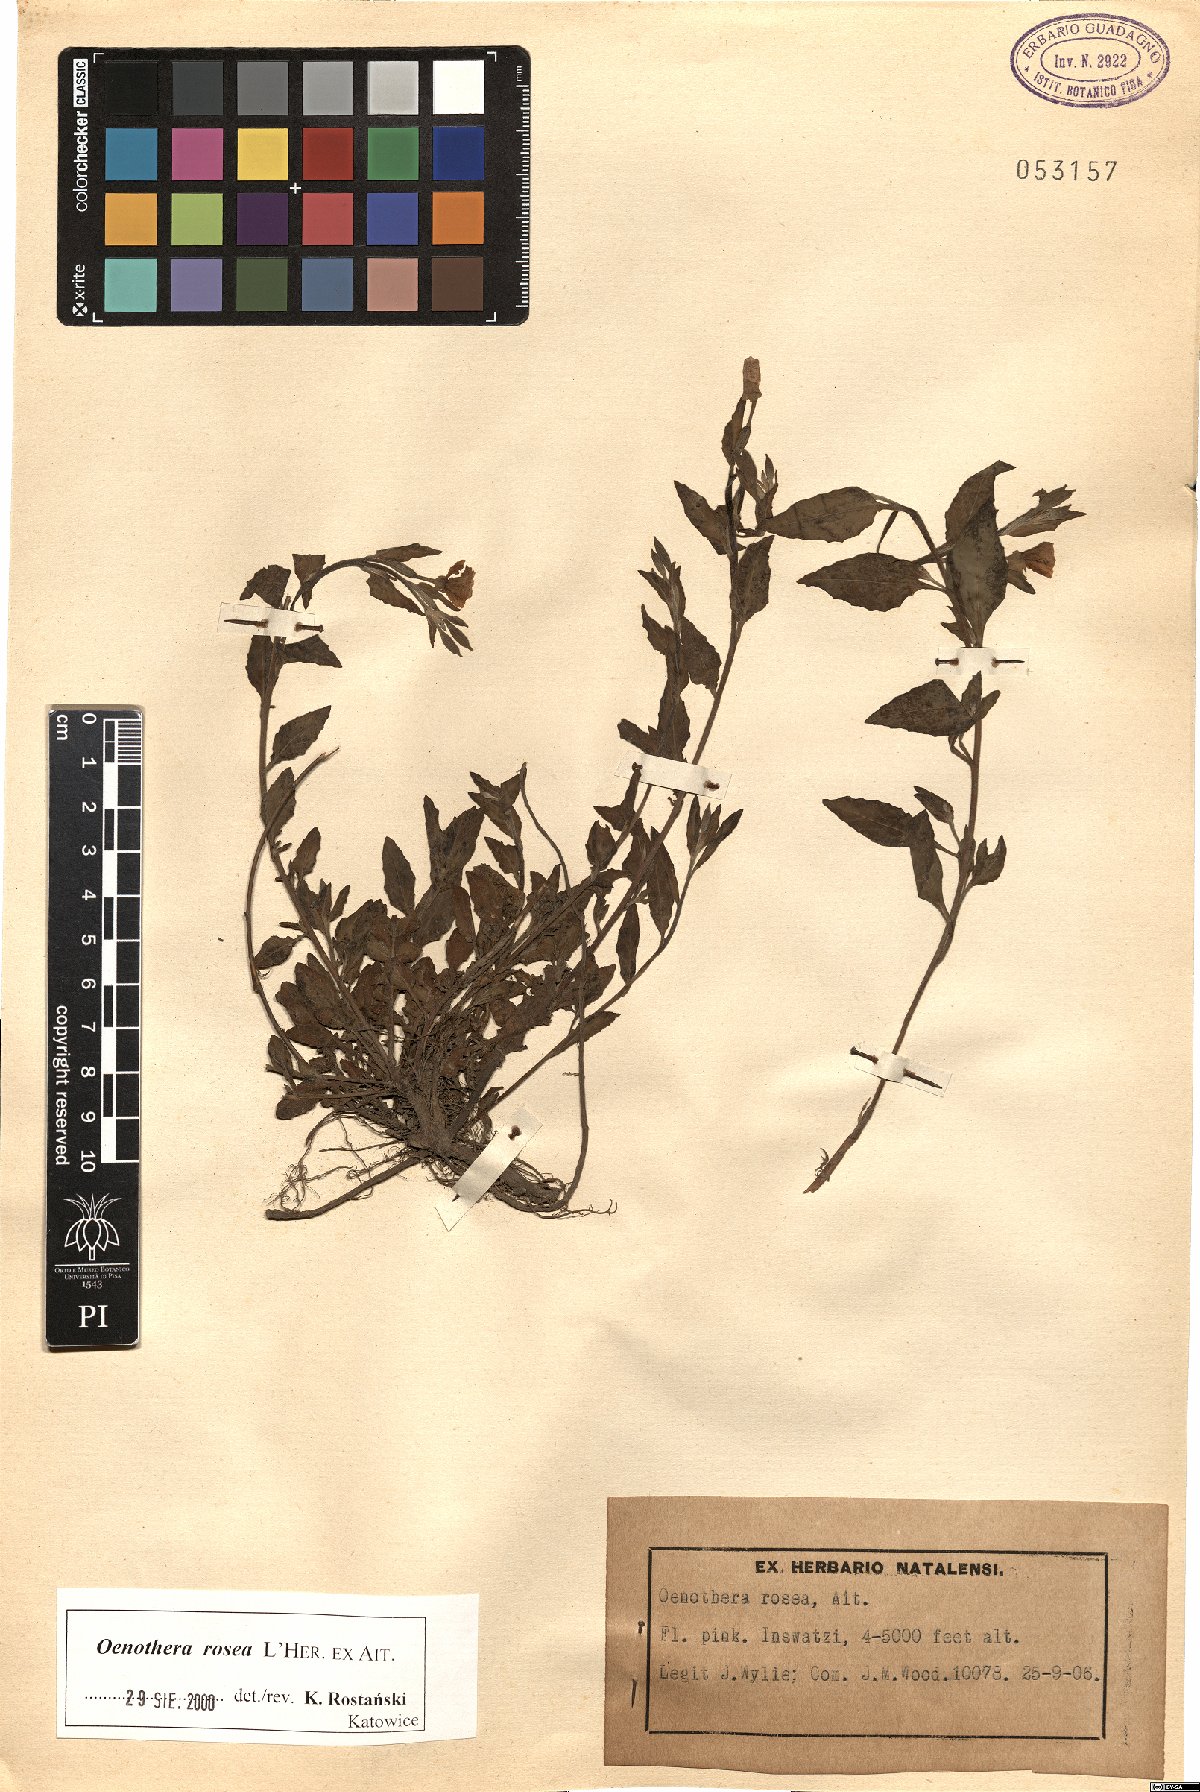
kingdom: Plantae
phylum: Tracheophyta
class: Magnoliopsida
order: Myrtales
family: Onagraceae
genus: Oenothera
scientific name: Oenothera rosea
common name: Rosy evening-primrose
